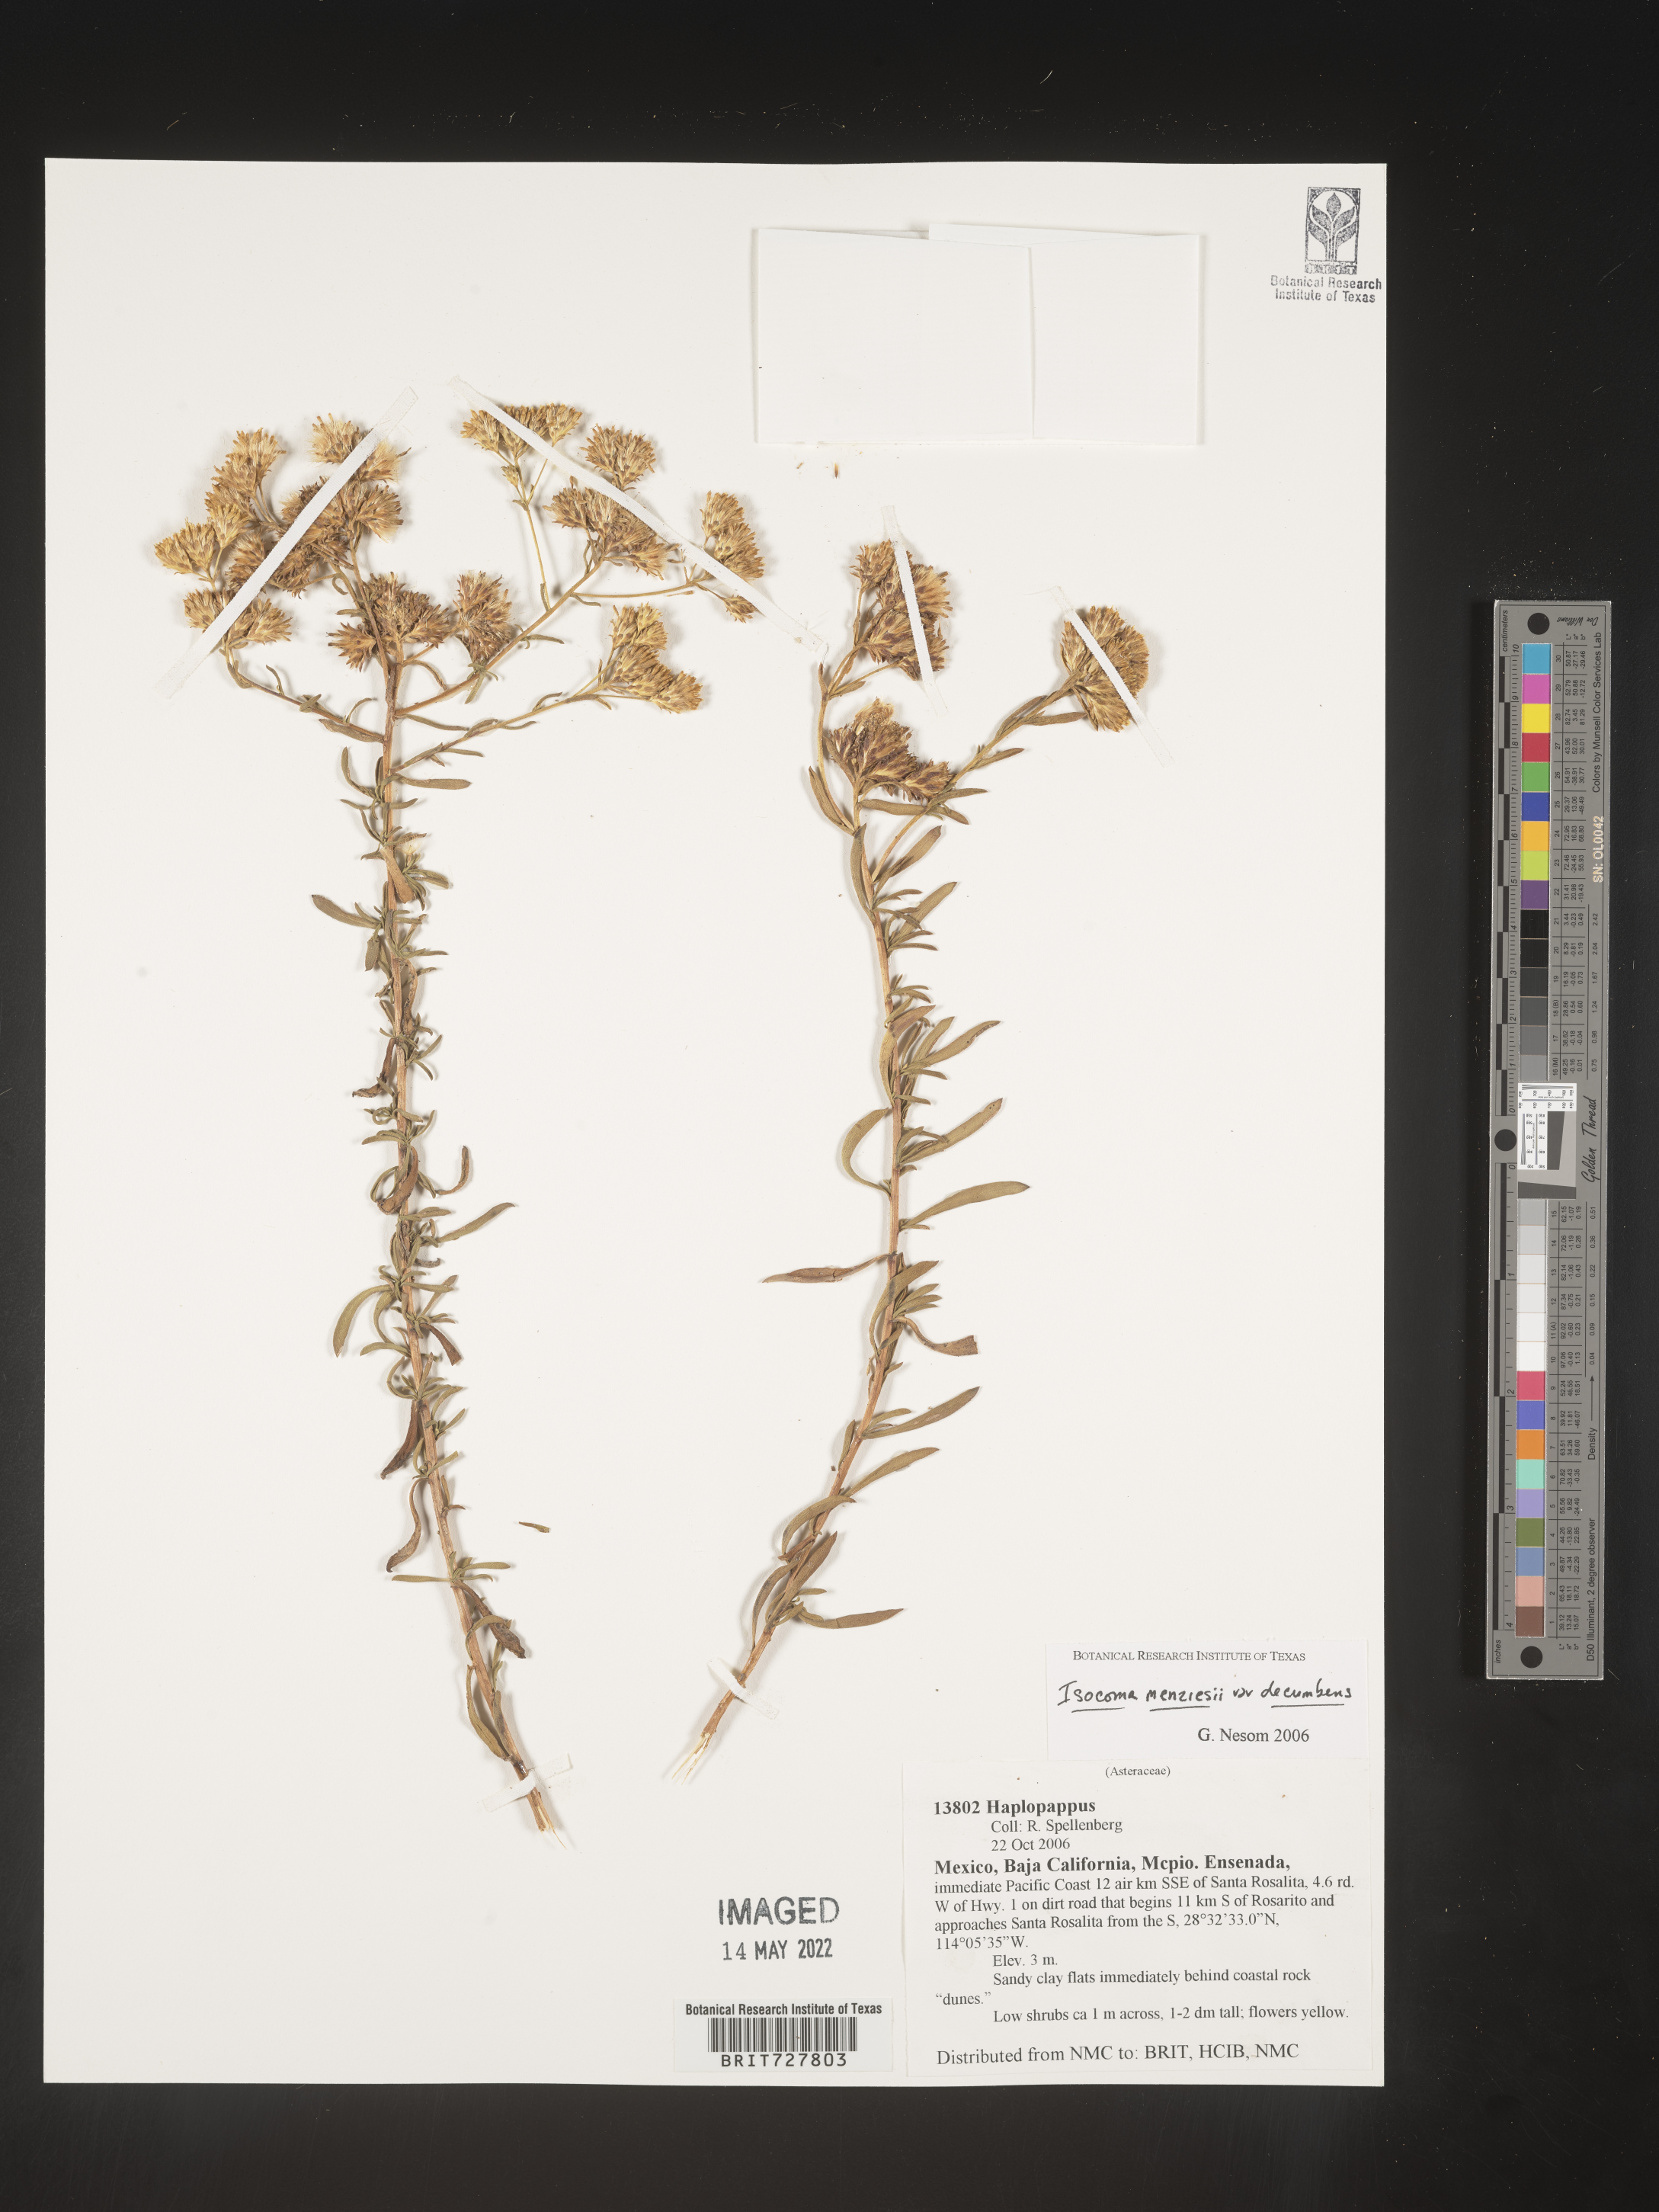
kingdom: Plantae
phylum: Tracheophyta
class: Magnoliopsida
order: Asterales
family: Asteraceae
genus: Isocoma
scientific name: Isocoma
